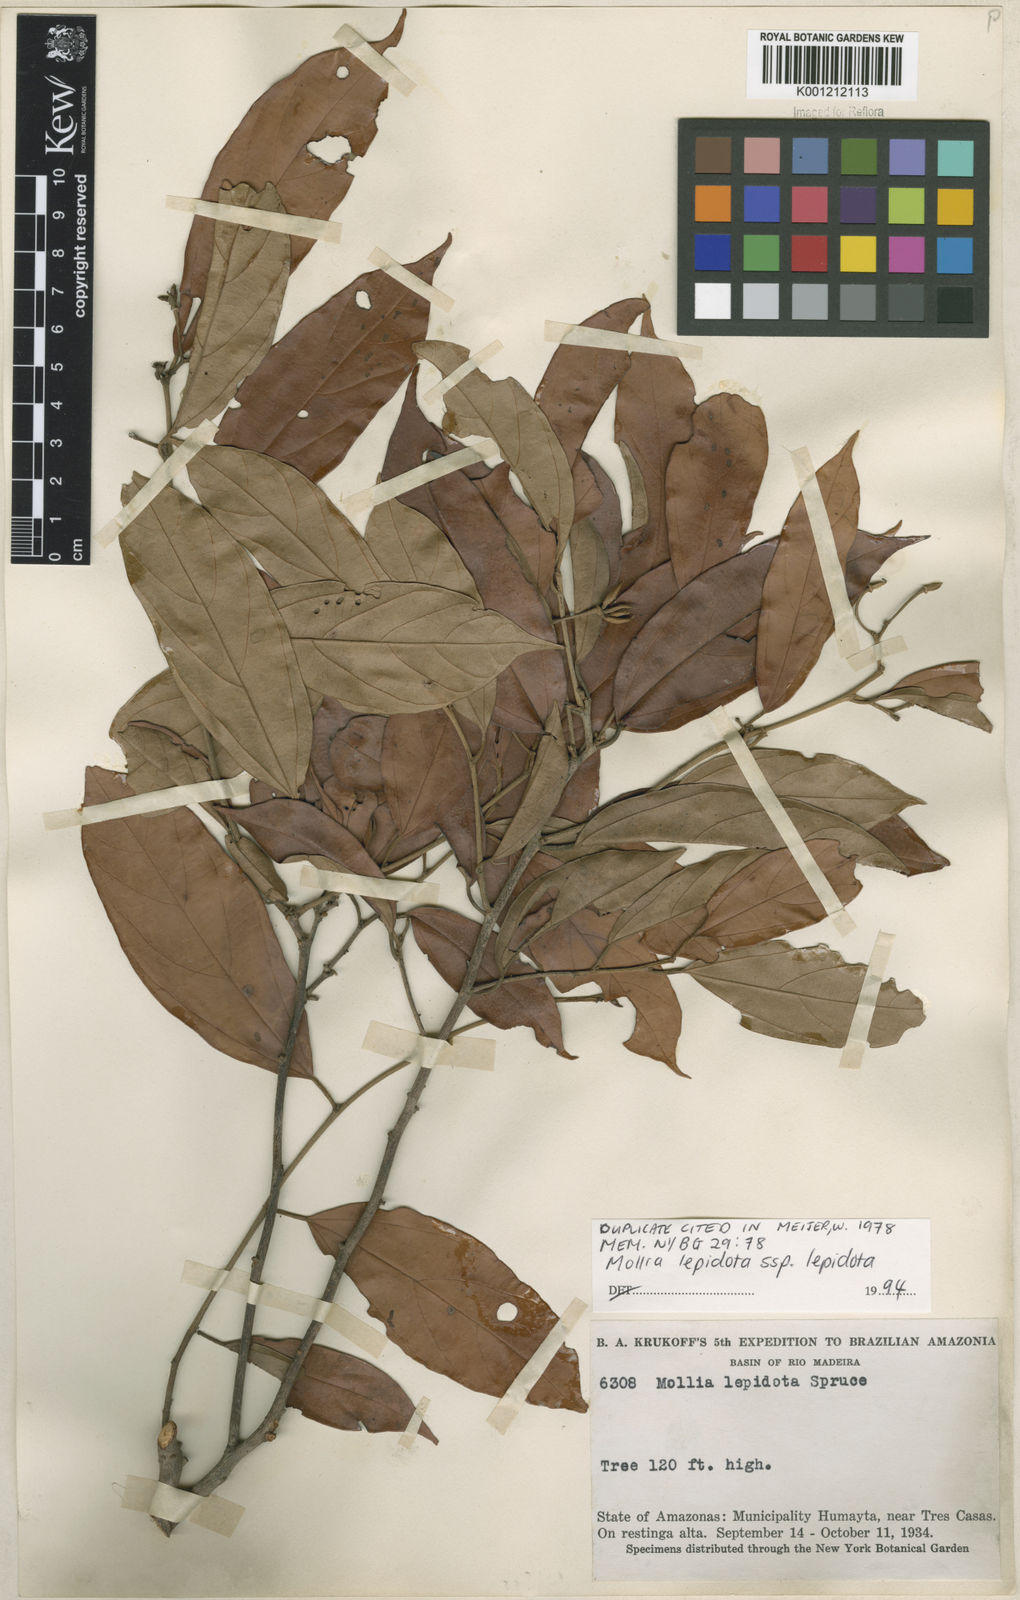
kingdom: Plantae
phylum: Tracheophyta
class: Magnoliopsida
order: Malvales
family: Malvaceae
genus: Mollia
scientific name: Mollia lepidota
